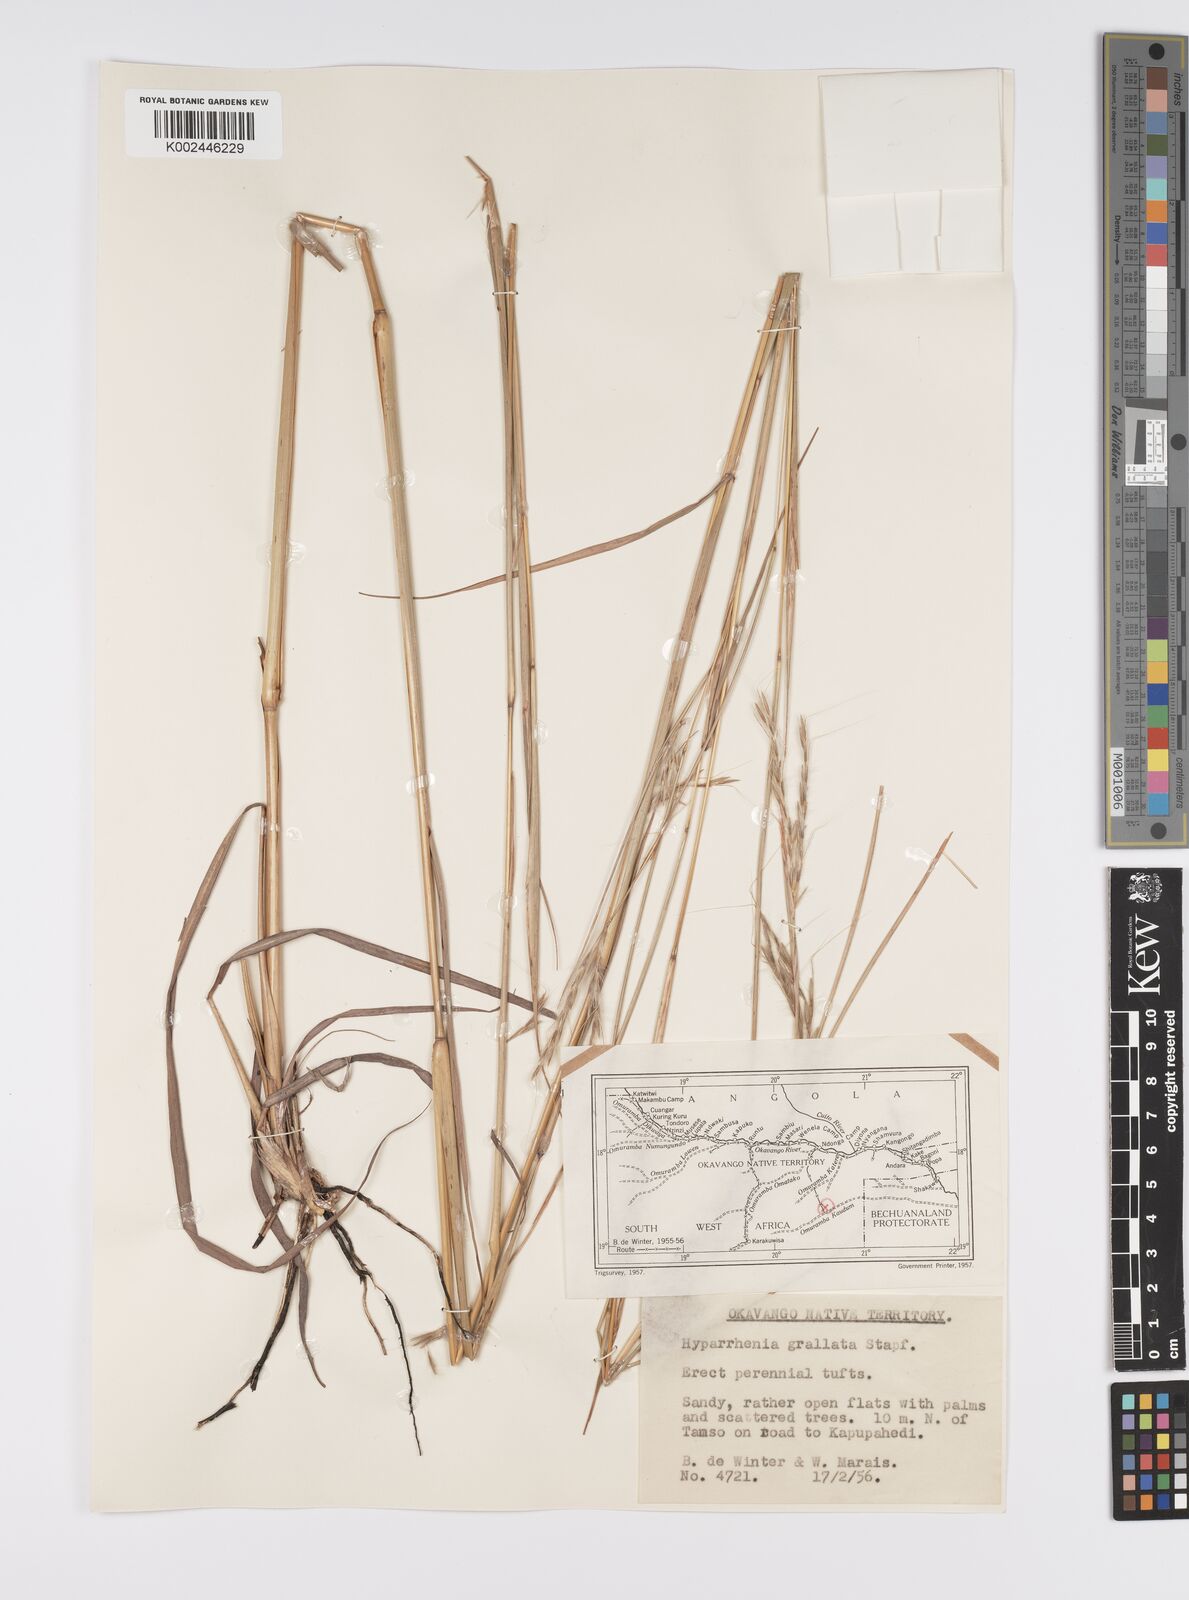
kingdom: Plantae
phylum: Tracheophyta
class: Liliopsida
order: Poales
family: Poaceae
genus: Elymandra
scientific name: Elymandra grallata
